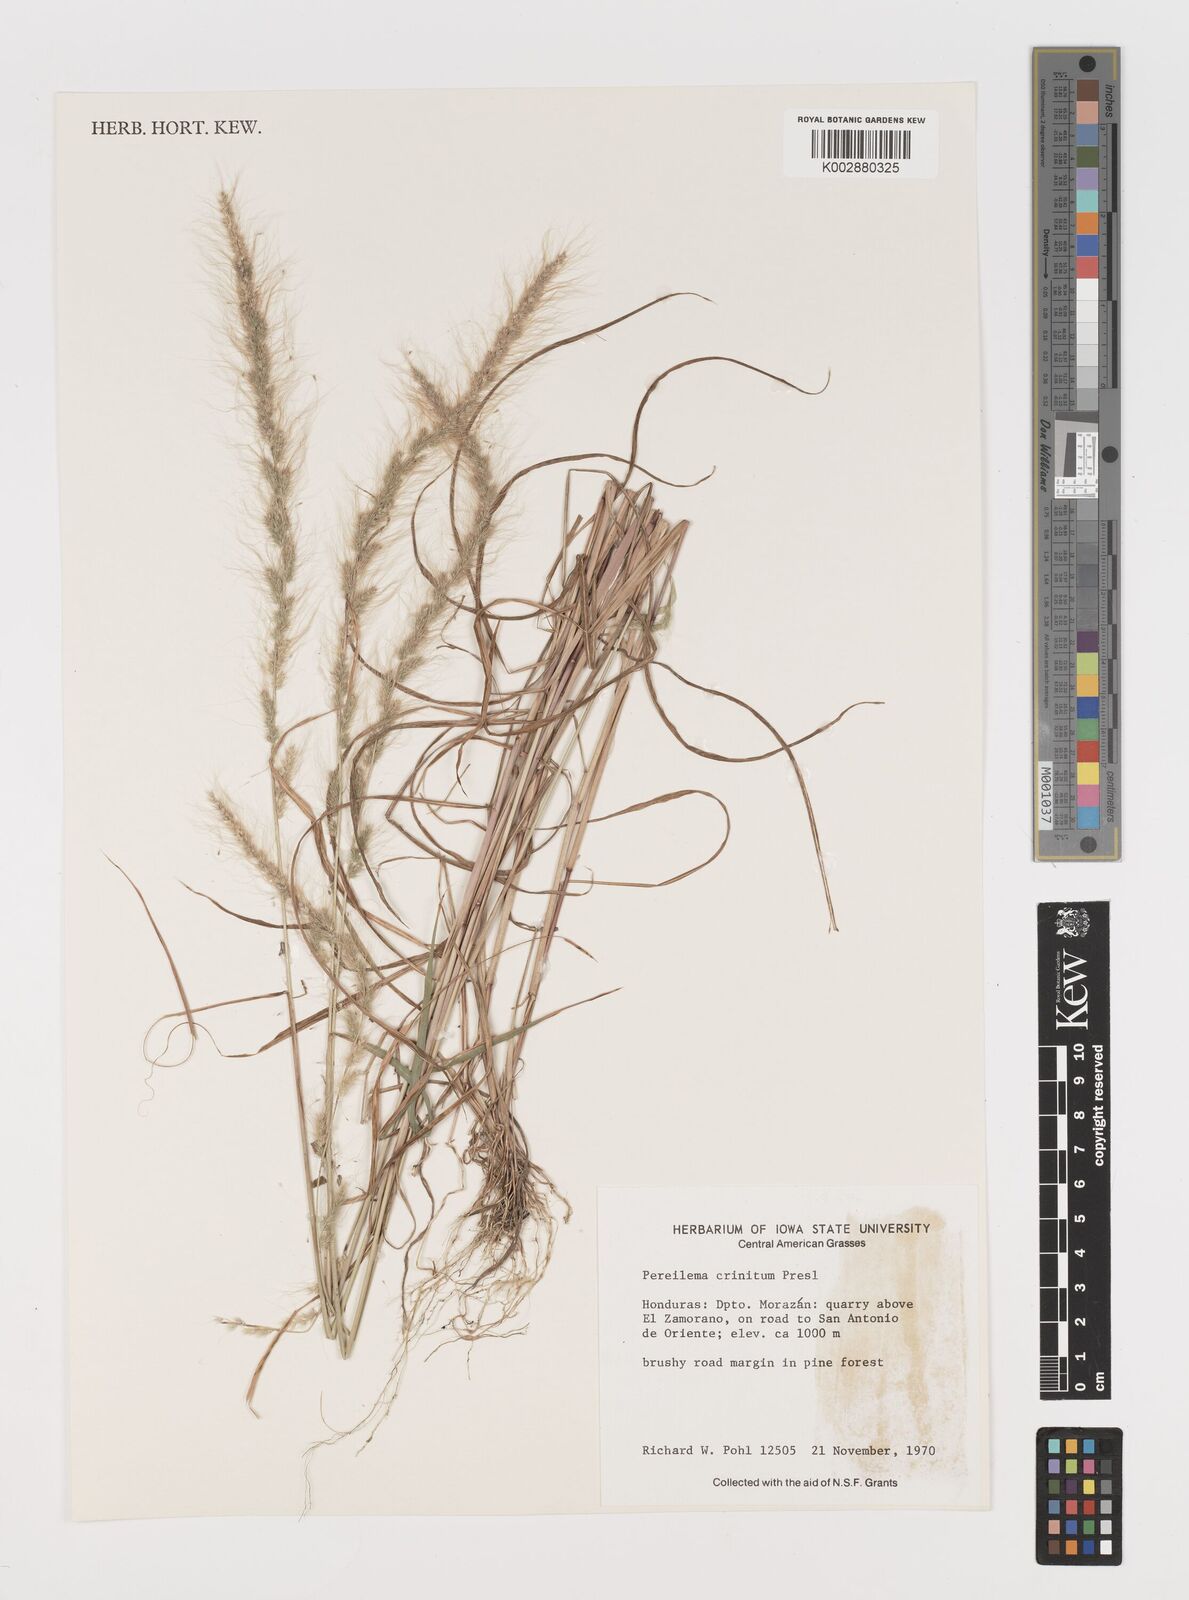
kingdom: Plantae
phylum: Tracheophyta
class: Liliopsida
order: Poales
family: Poaceae
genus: Muhlenbergia
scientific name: Muhlenbergia pereilema
